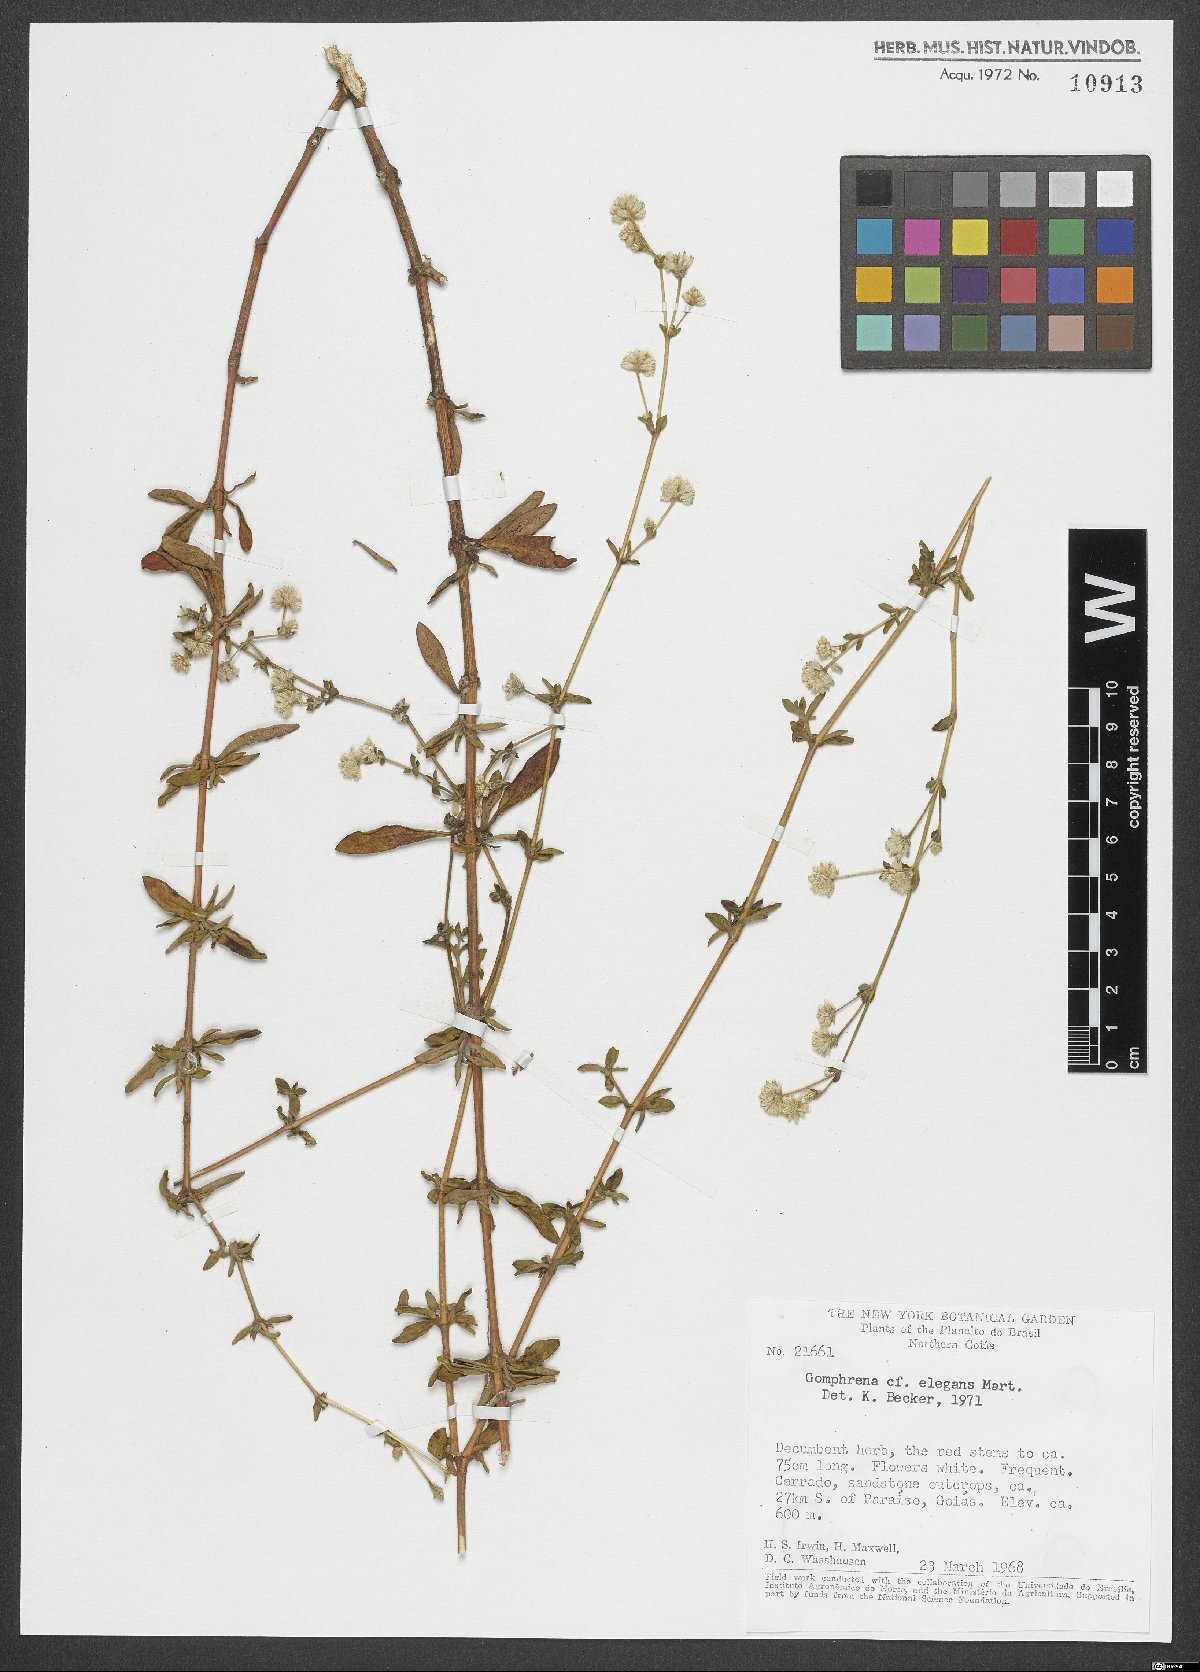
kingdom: Plantae
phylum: Tracheophyta
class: Magnoliopsida
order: Caryophyllales
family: Amaranthaceae
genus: Gomphrena
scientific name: Gomphrena elegans
